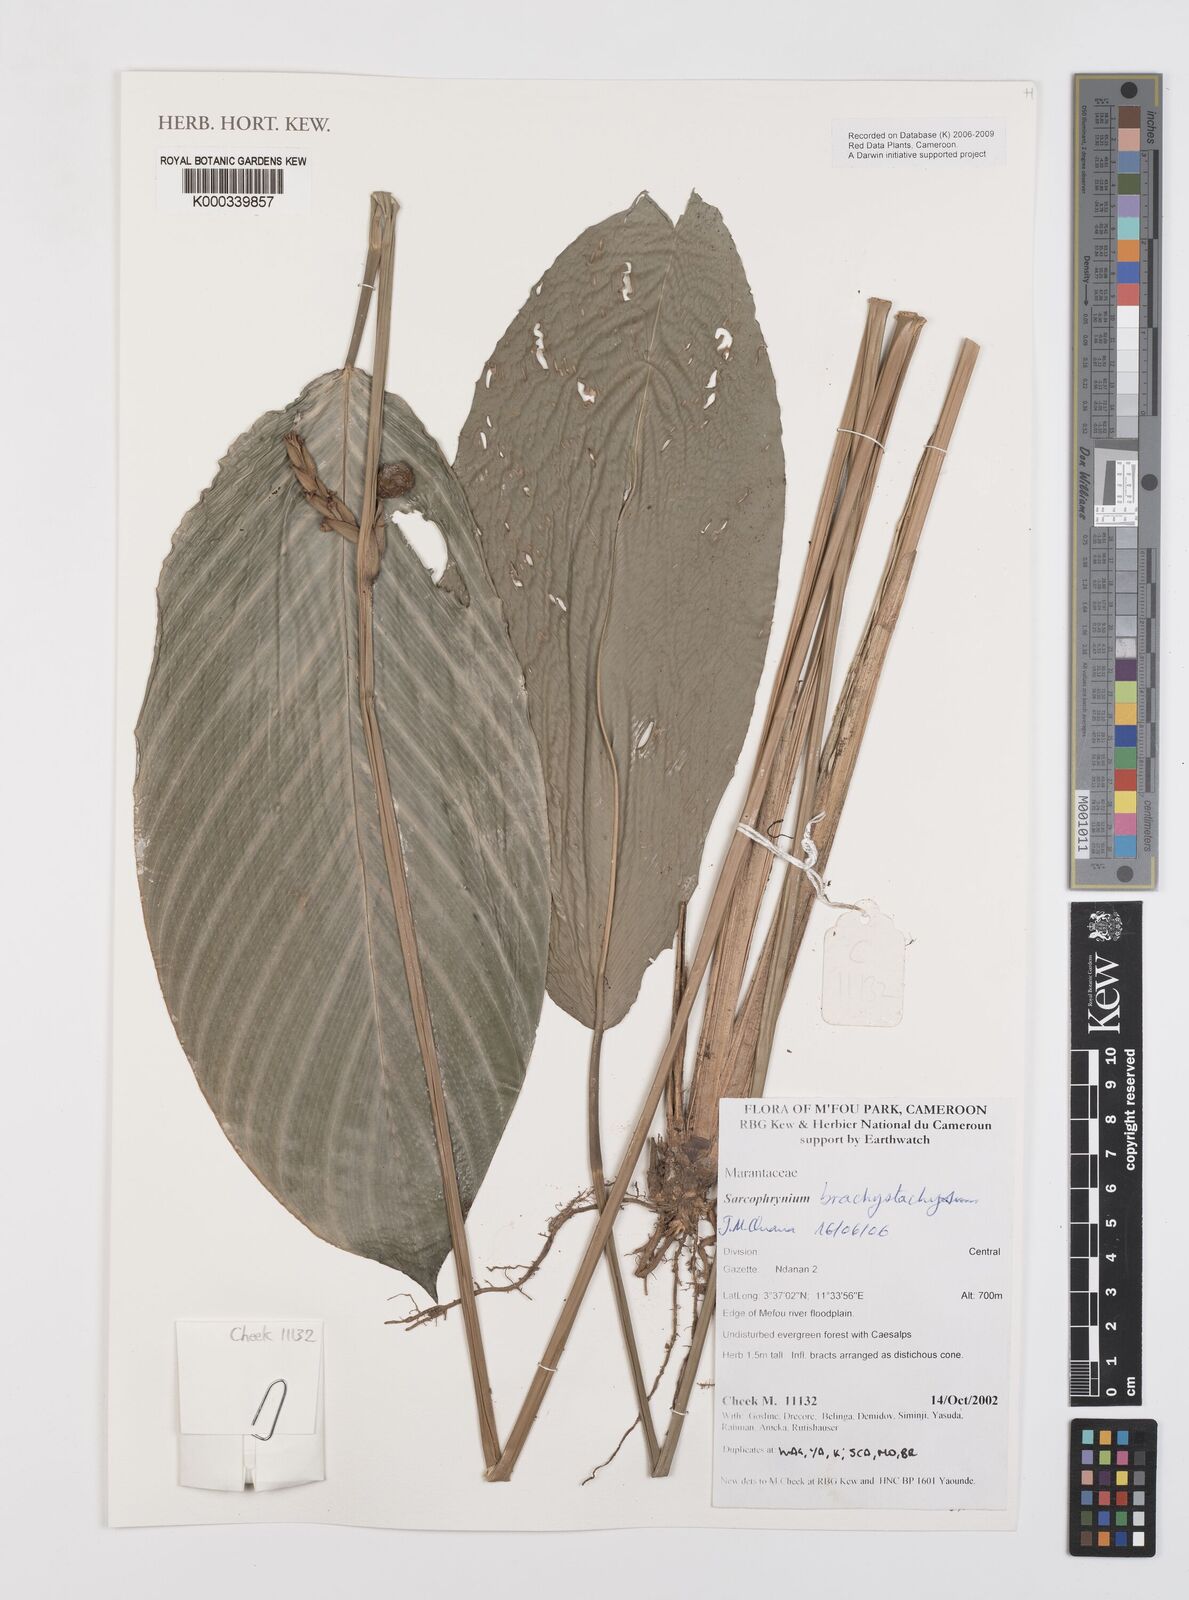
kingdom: Plantae
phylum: Tracheophyta
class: Liliopsida
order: Zingiberales
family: Marantaceae
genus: Sarcophrynium
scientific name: Sarcophrynium
